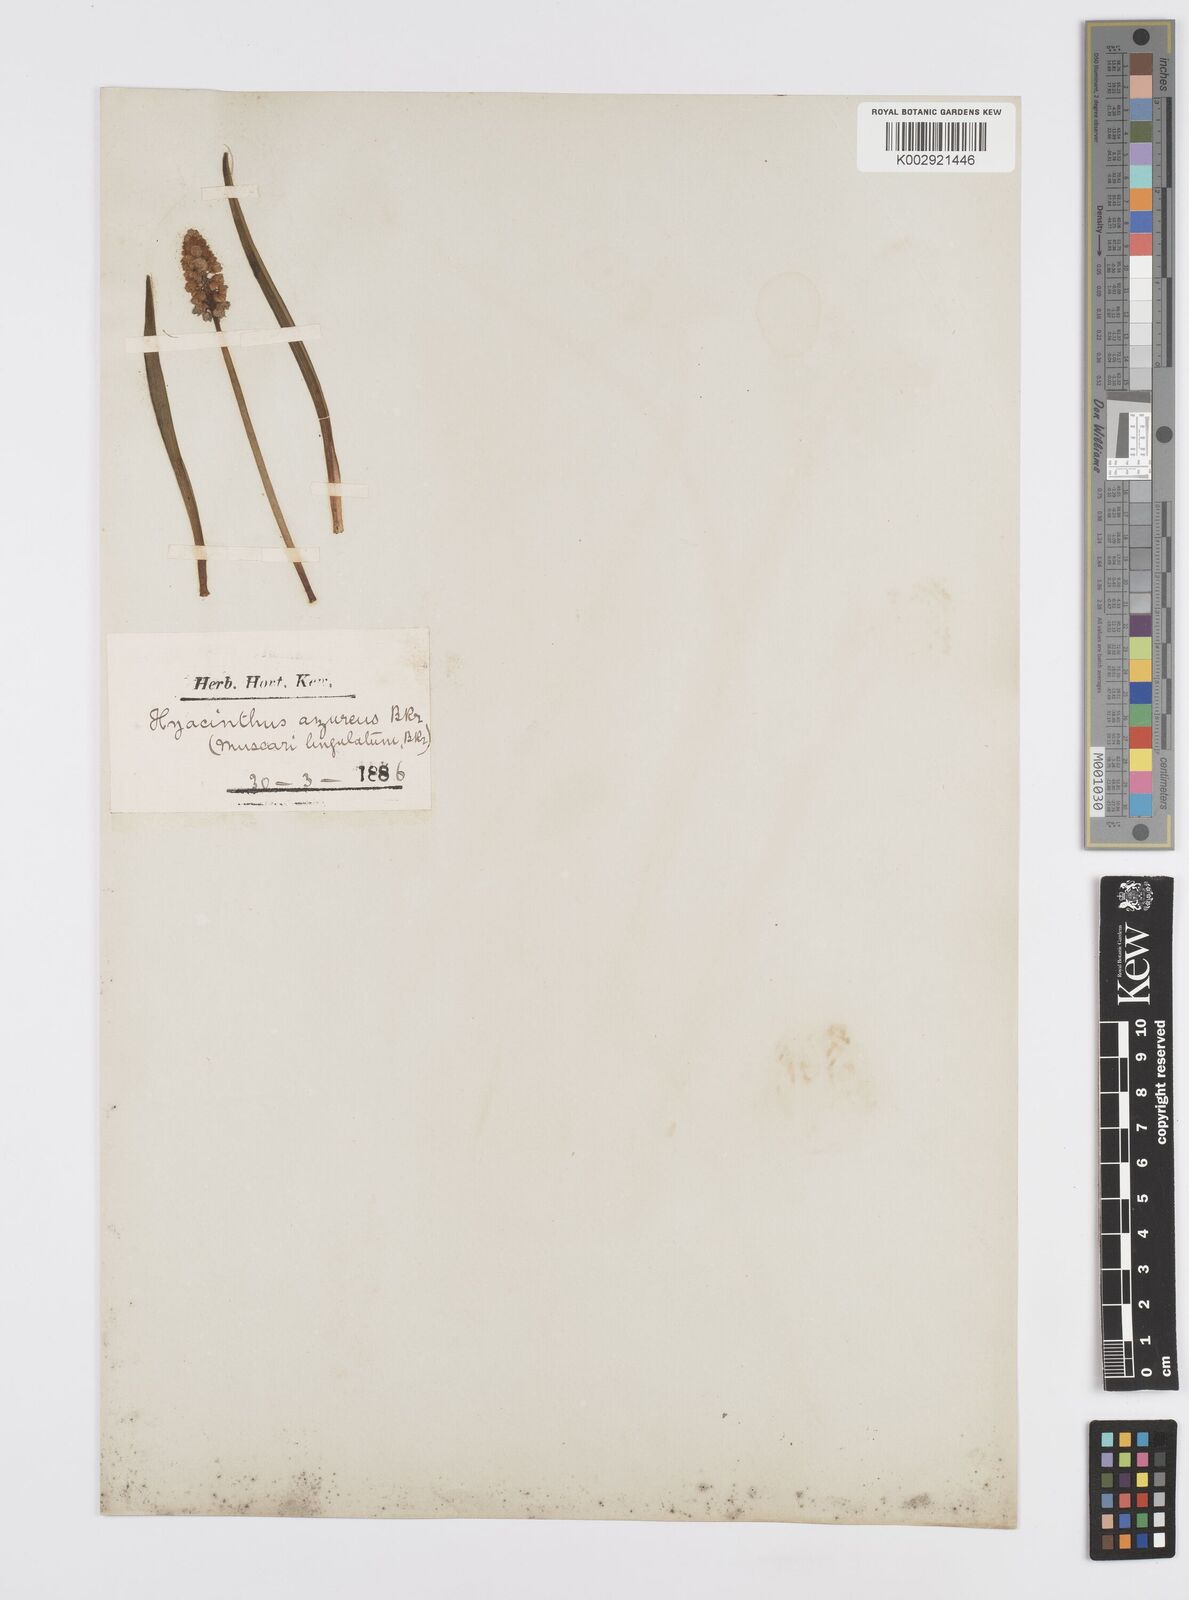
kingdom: Plantae
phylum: Tracheophyta
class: Liliopsida
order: Asparagales
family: Asparagaceae
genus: Muscari
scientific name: Muscari azureum
